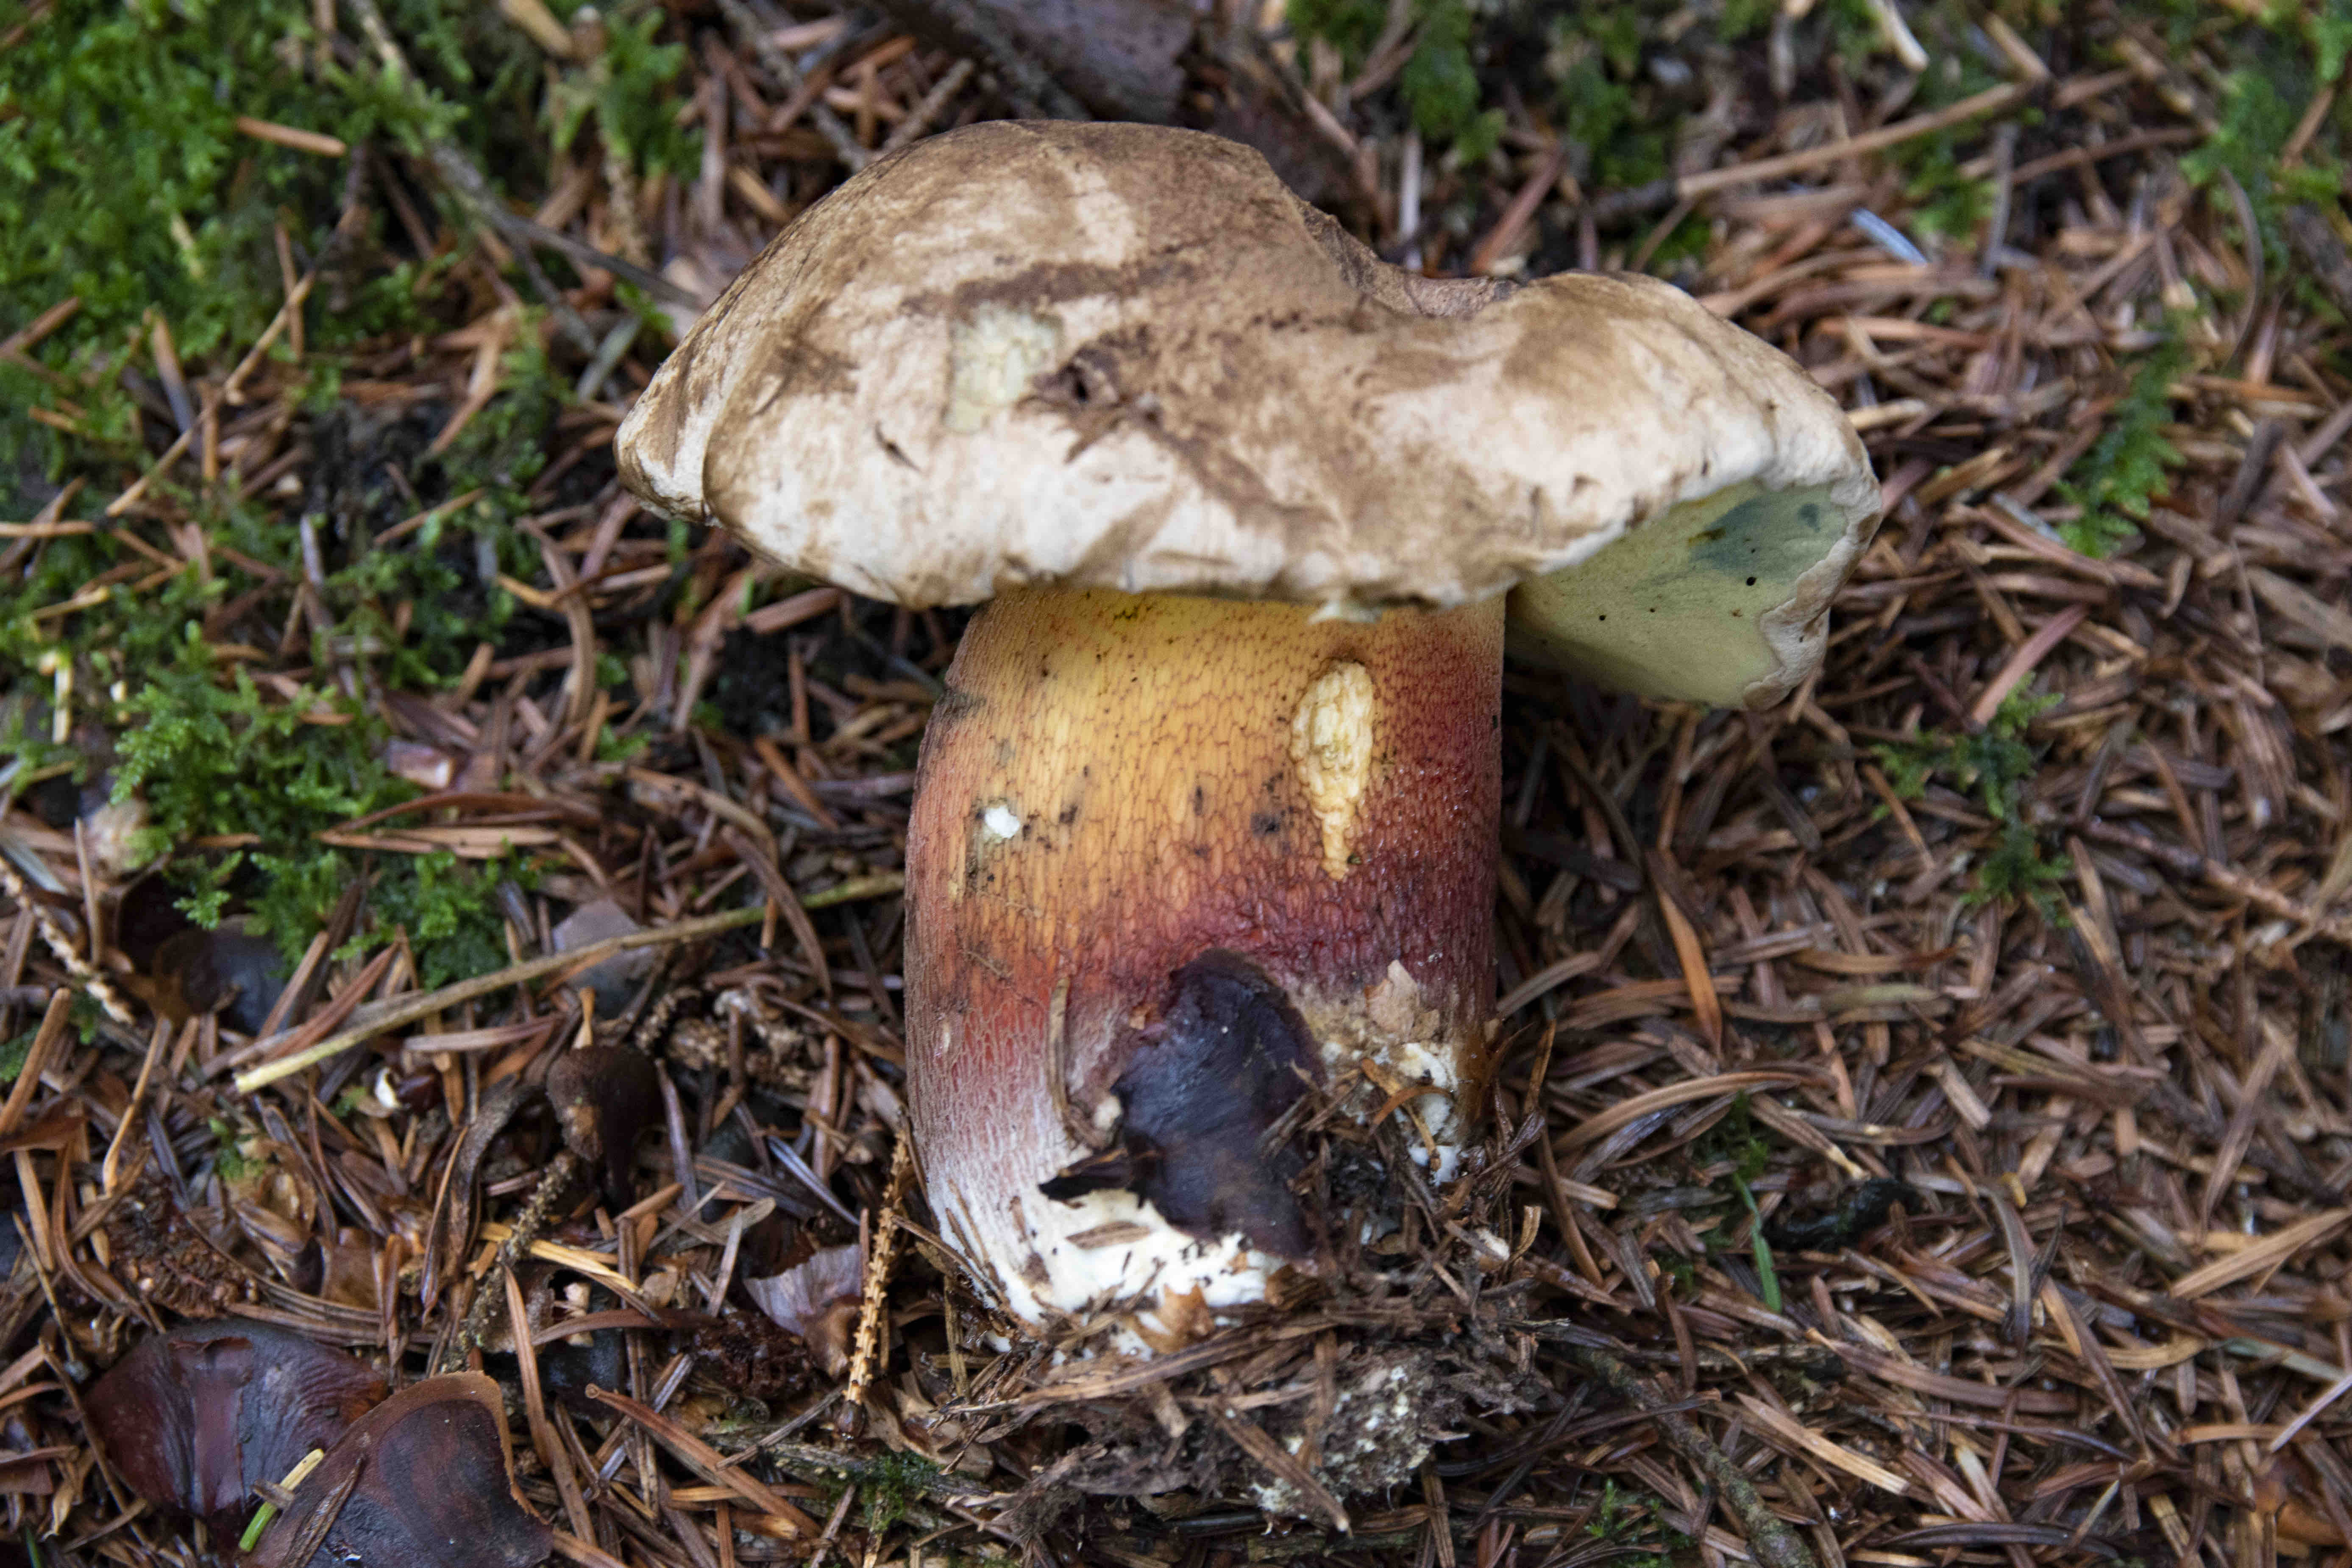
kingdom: Fungi
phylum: Basidiomycota
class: Agaricomycetes
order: Boletales
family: Boletaceae
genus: Caloboletus
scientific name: Caloboletus calopus
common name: skønfodet rørhat
